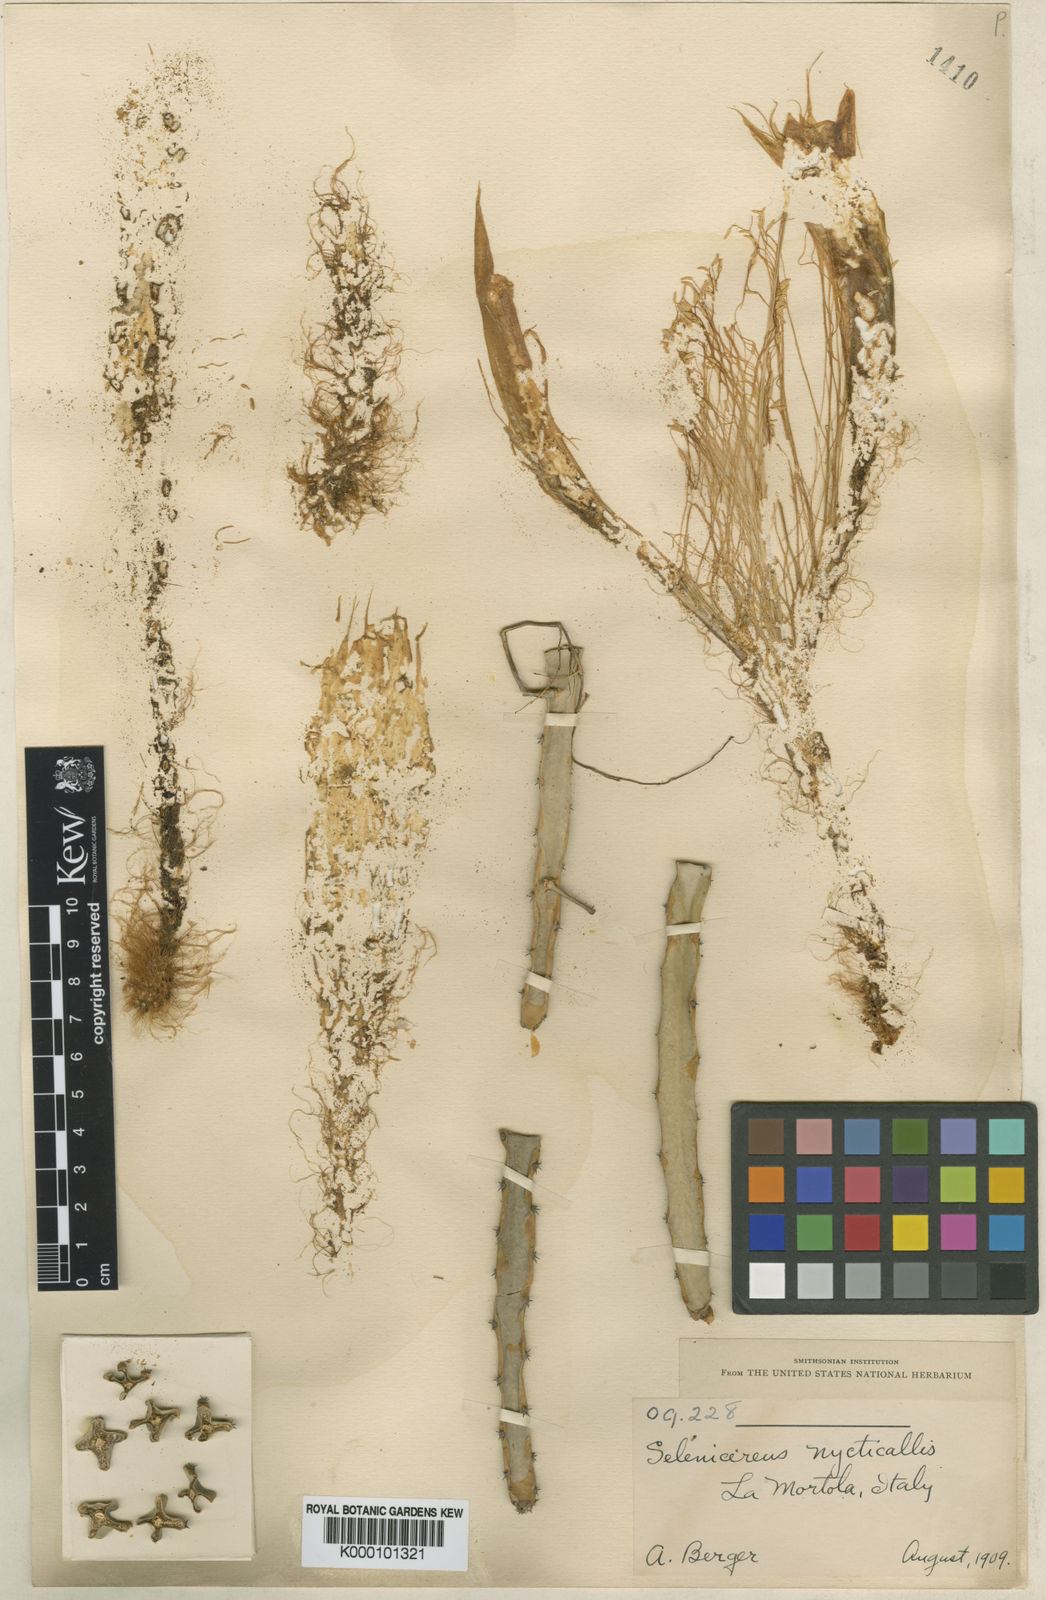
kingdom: Plantae
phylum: Tracheophyta
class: Magnoliopsida
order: Caryophyllales
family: Cactaceae
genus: Selenicereus
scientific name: Selenicereus pteranthus
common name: Princess of the night
